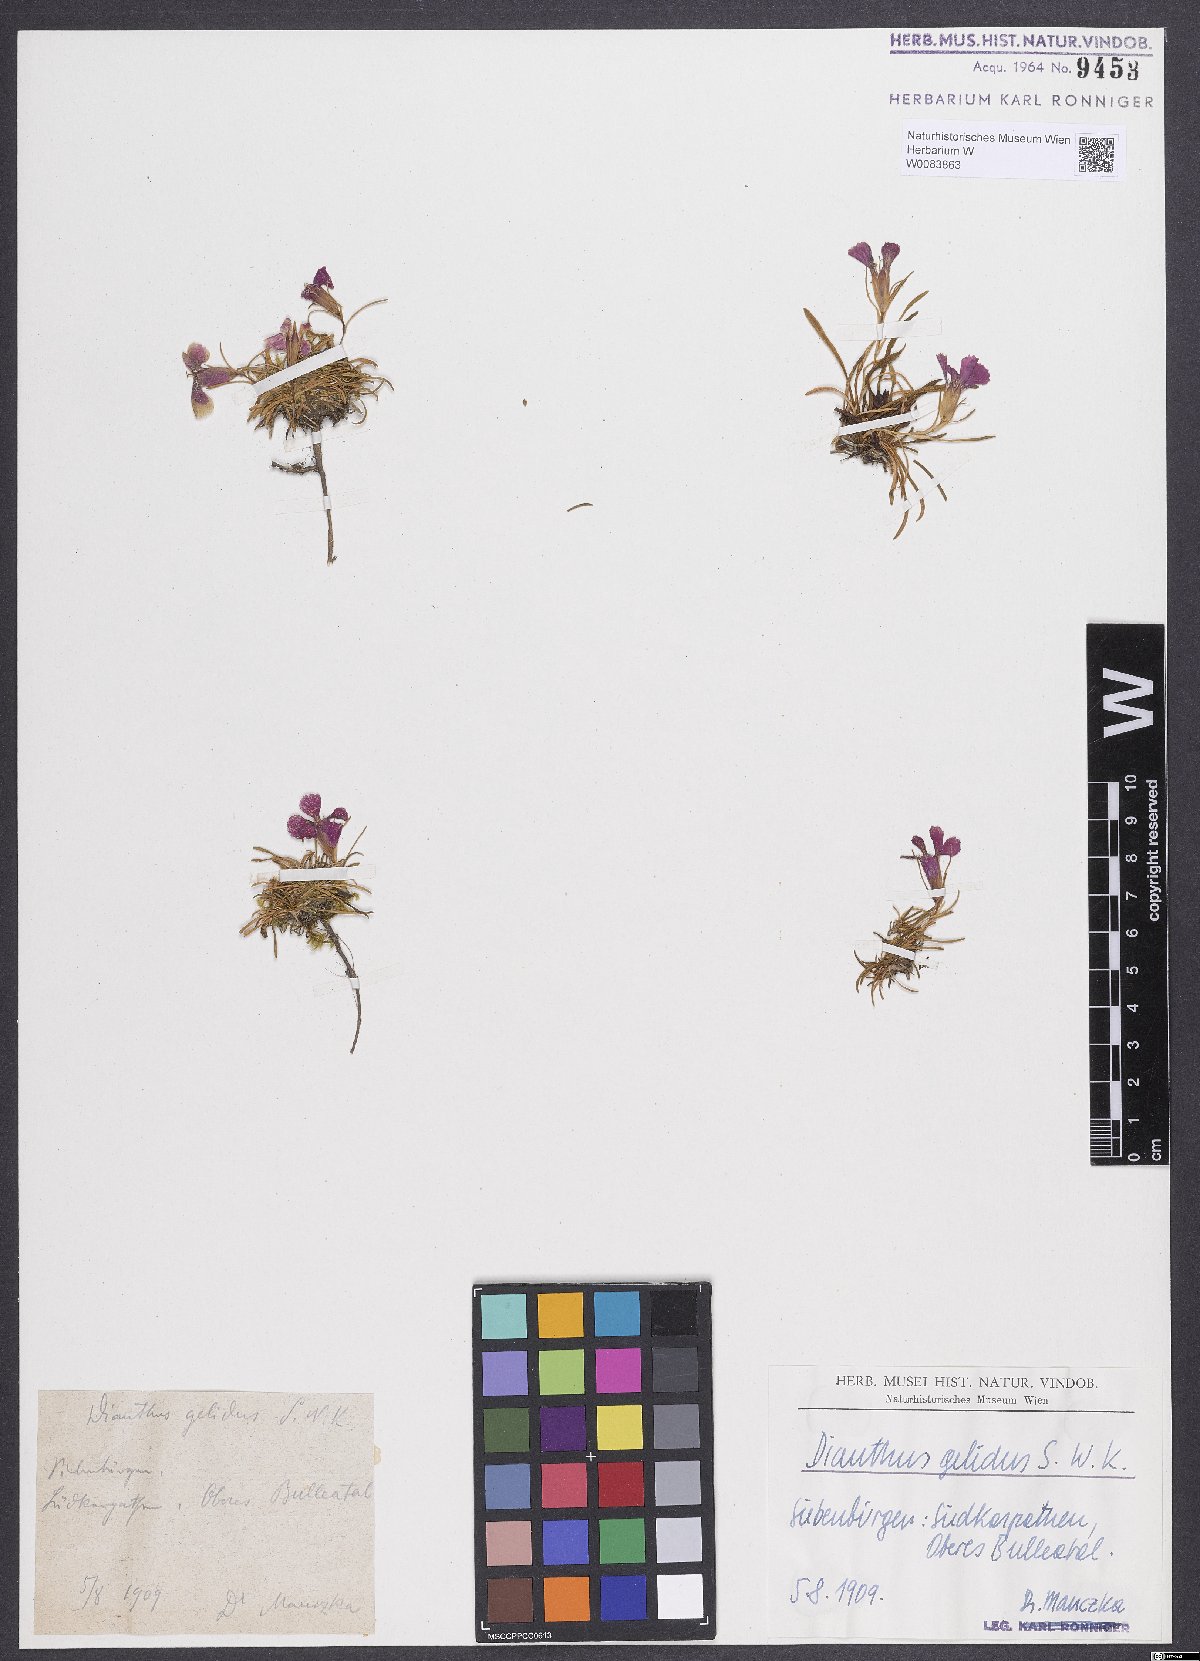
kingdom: Plantae
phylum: Tracheophyta
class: Magnoliopsida
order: Caryophyllales
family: Caryophyllaceae
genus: Dianthus
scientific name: Dianthus glacialis
